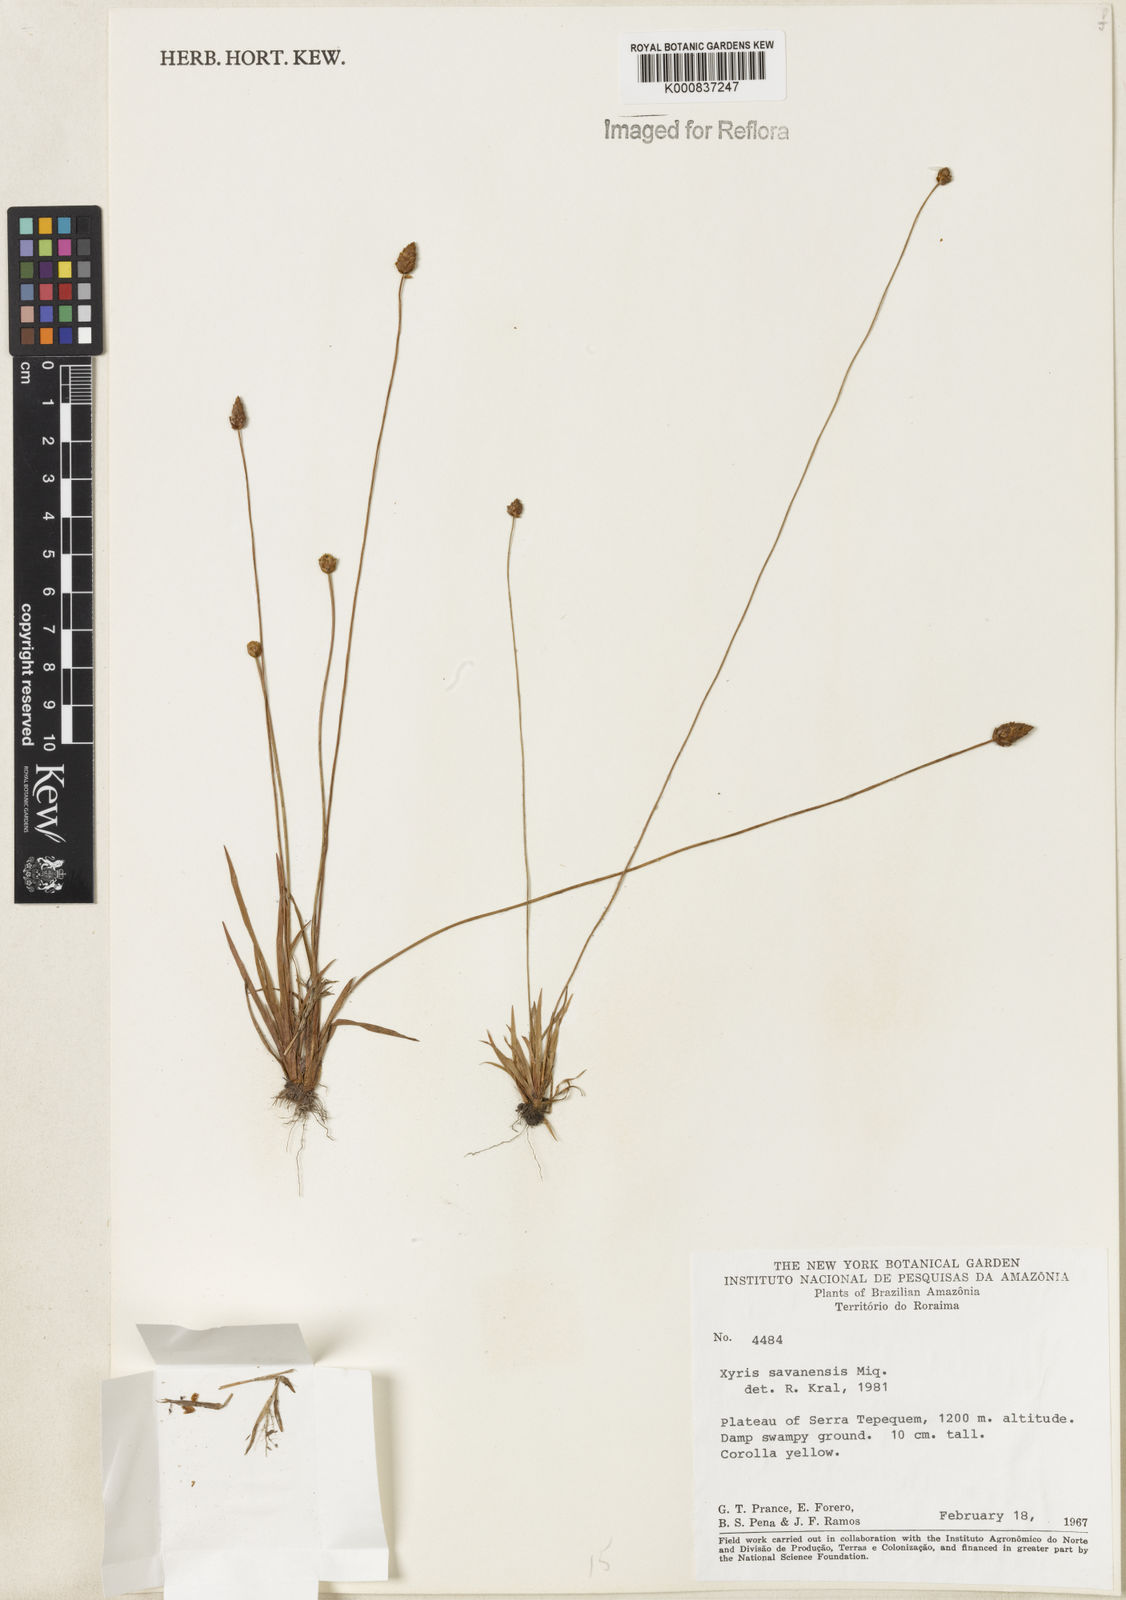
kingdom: Plantae
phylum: Tracheophyta
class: Liliopsida
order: Poales
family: Xyridaceae
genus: Xyris
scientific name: Xyris savanensis
